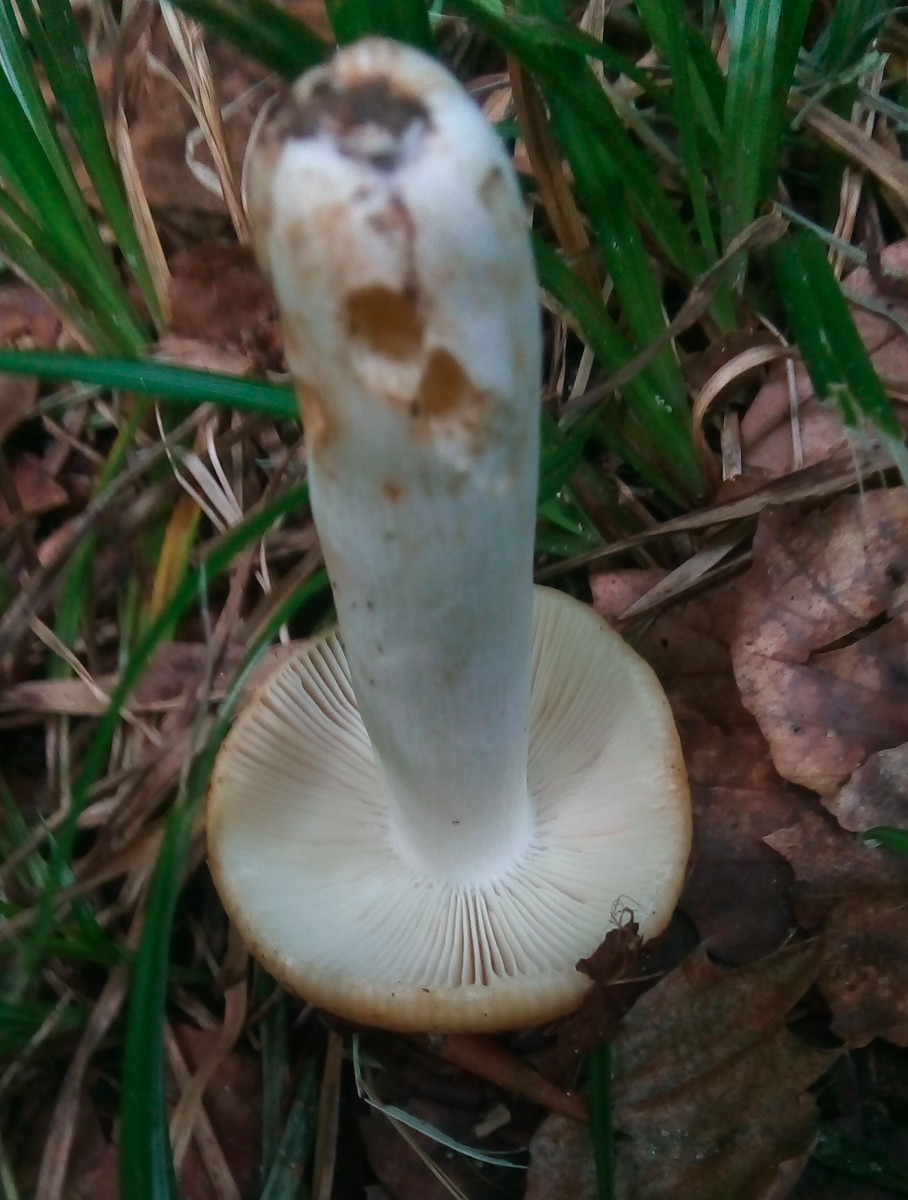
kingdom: Fungi
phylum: Basidiomycota
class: Agaricomycetes
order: Russulales
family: Russulaceae
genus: Russula
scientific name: Russula grata
